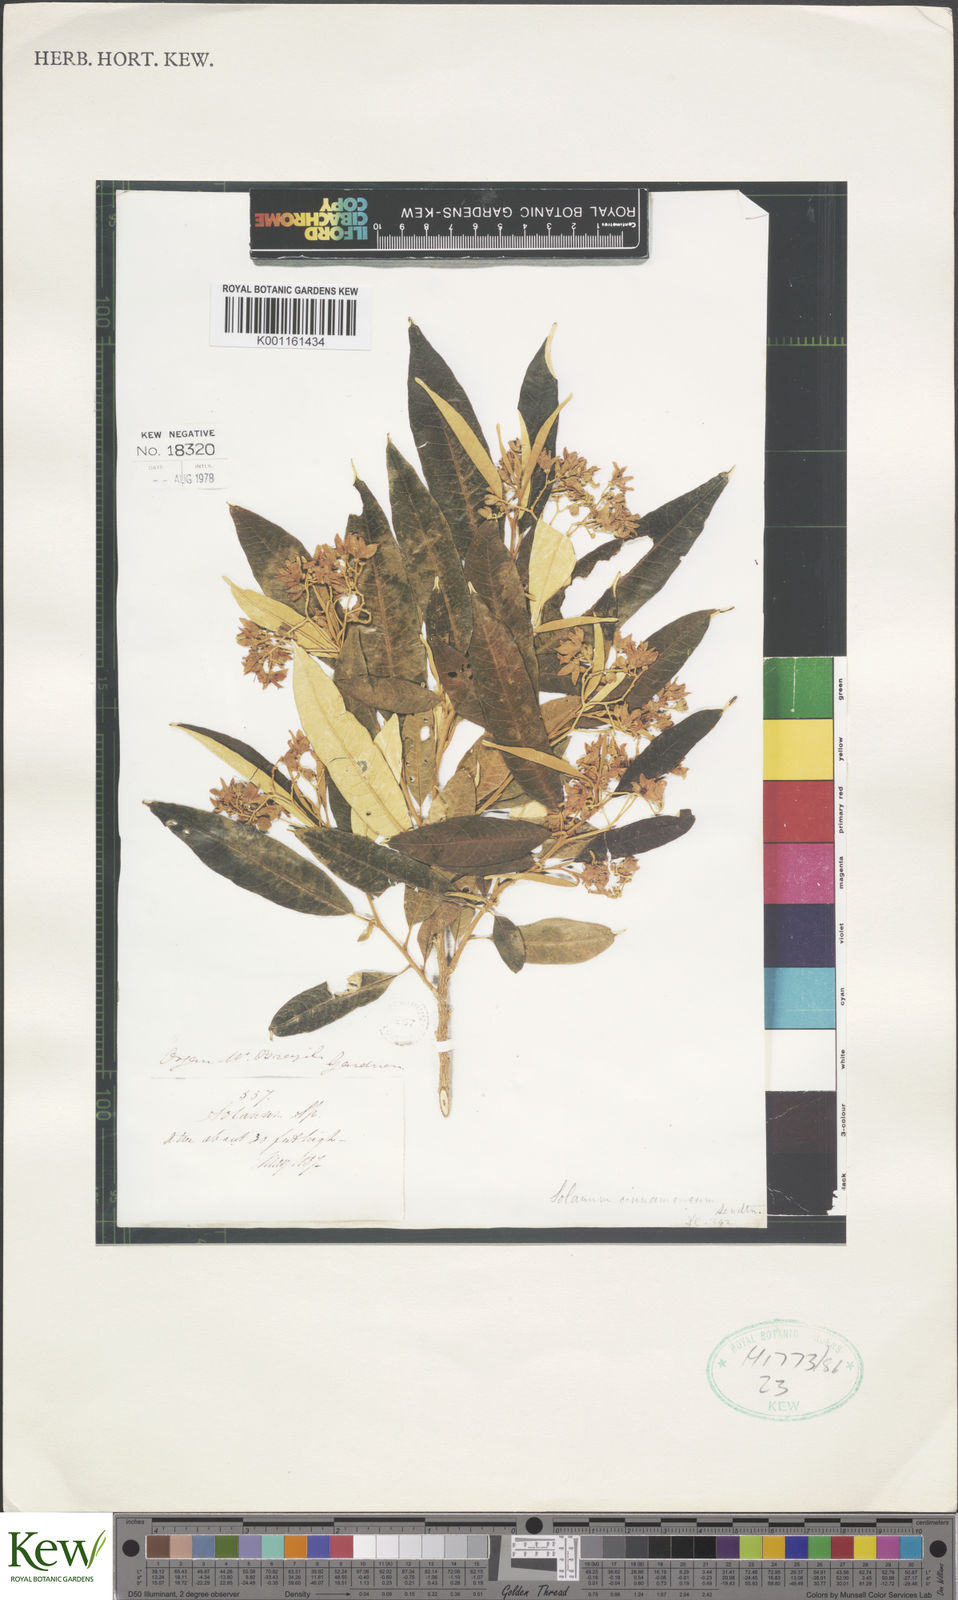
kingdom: Plantae
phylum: Tracheophyta
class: Magnoliopsida
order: Solanales
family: Solanaceae
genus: Solanum
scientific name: Solanum cinnamomeum
